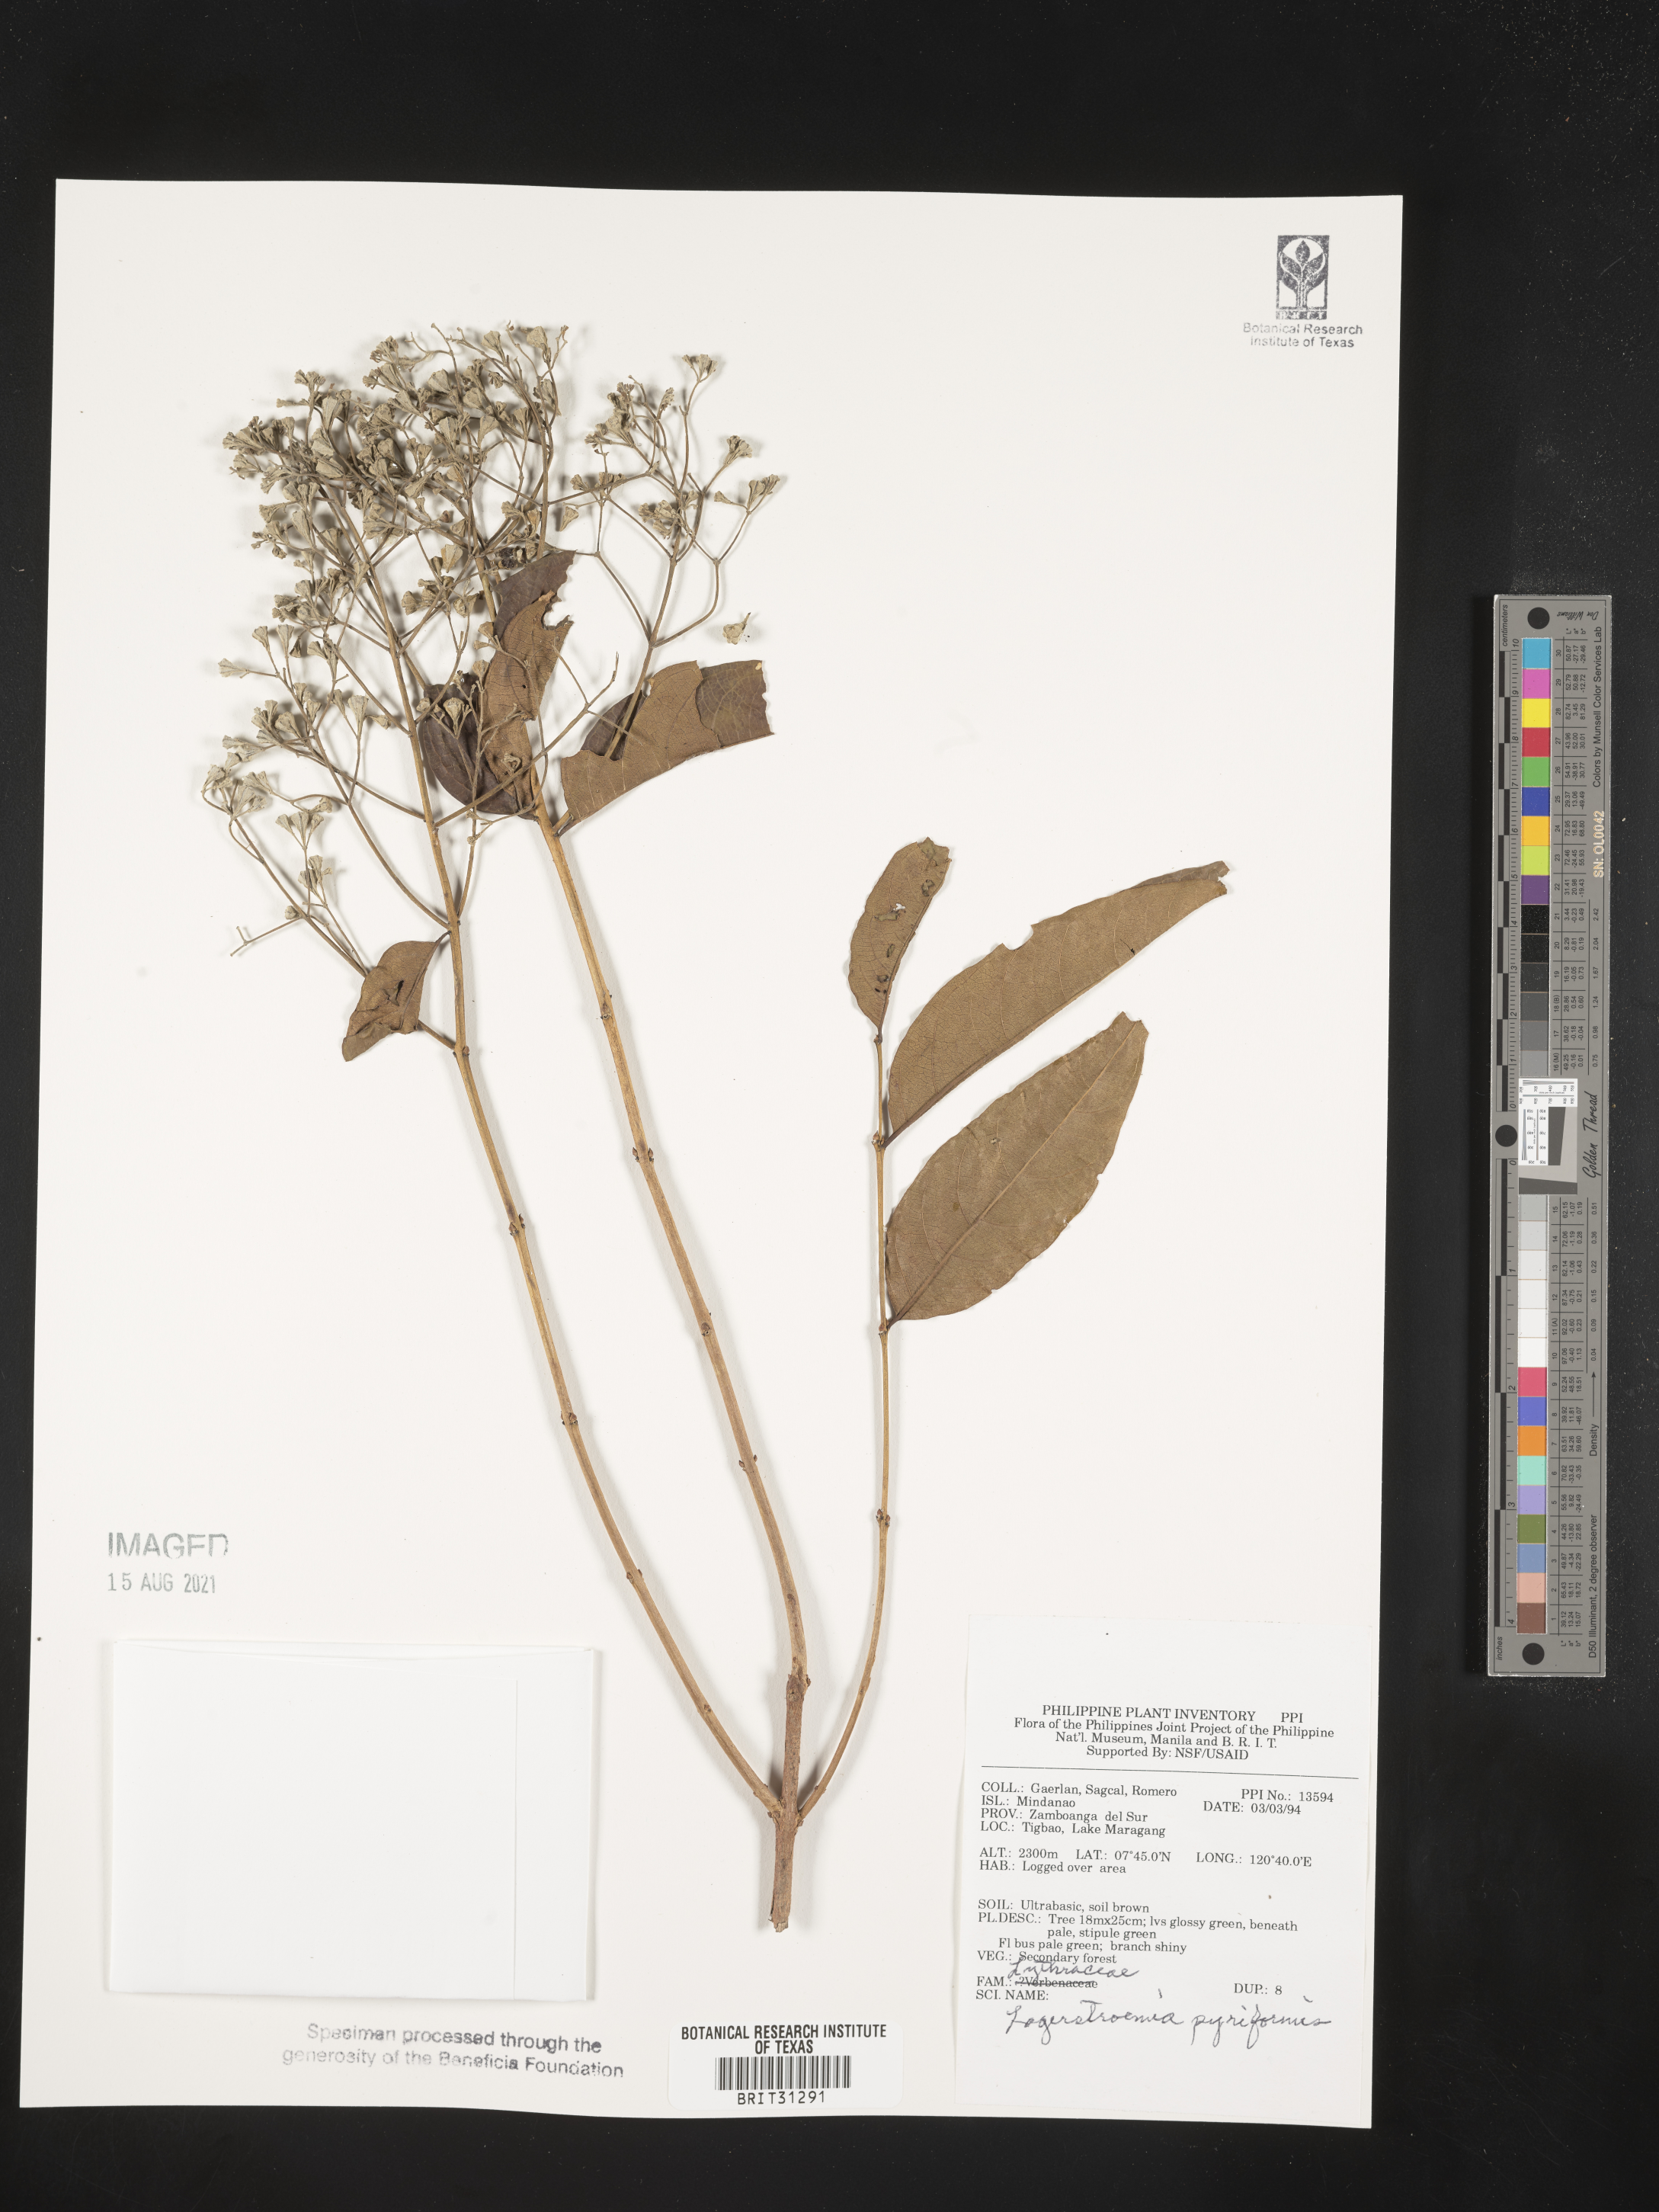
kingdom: Plantae
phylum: Tracheophyta
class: Magnoliopsida
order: Myrtales
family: Lythraceae
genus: Lagerstroemia
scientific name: Lagerstroemia celebica
